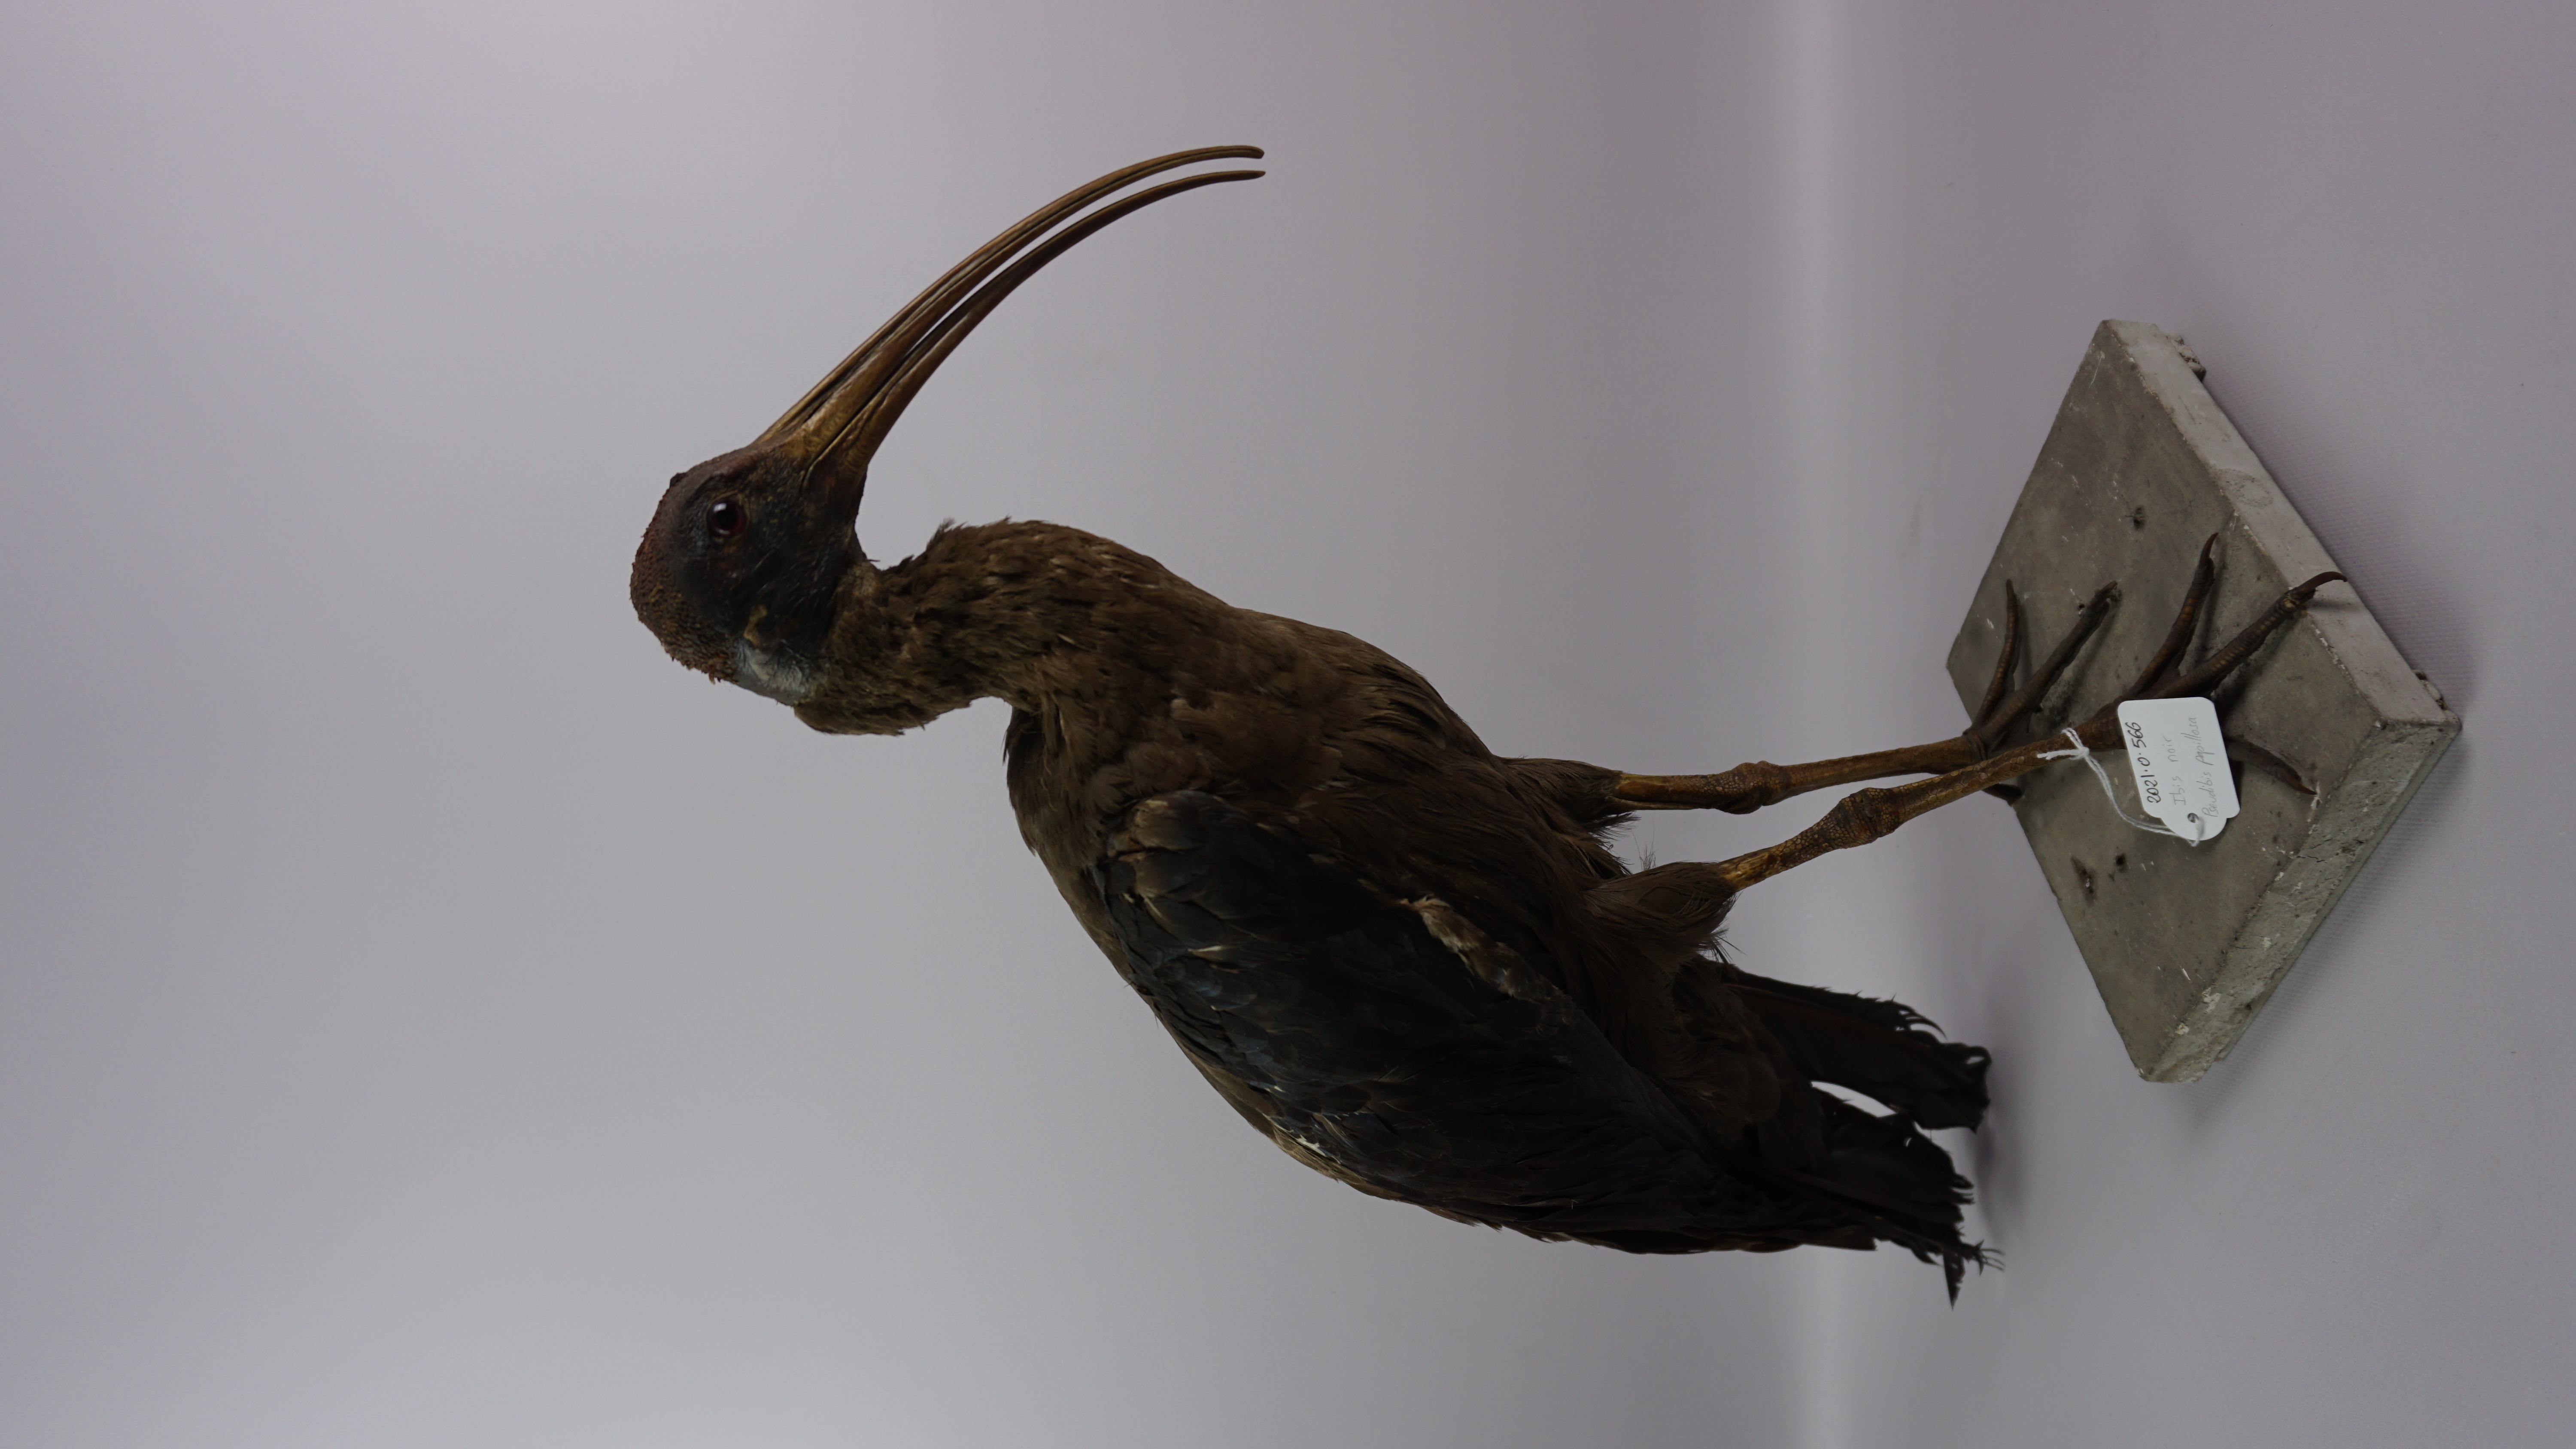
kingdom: Animalia
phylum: Chordata
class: Aves
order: Pelecaniformes
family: Threskiornithidae
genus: Pseudibis
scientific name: Pseudibis papillosa
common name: Red-naped ibis
